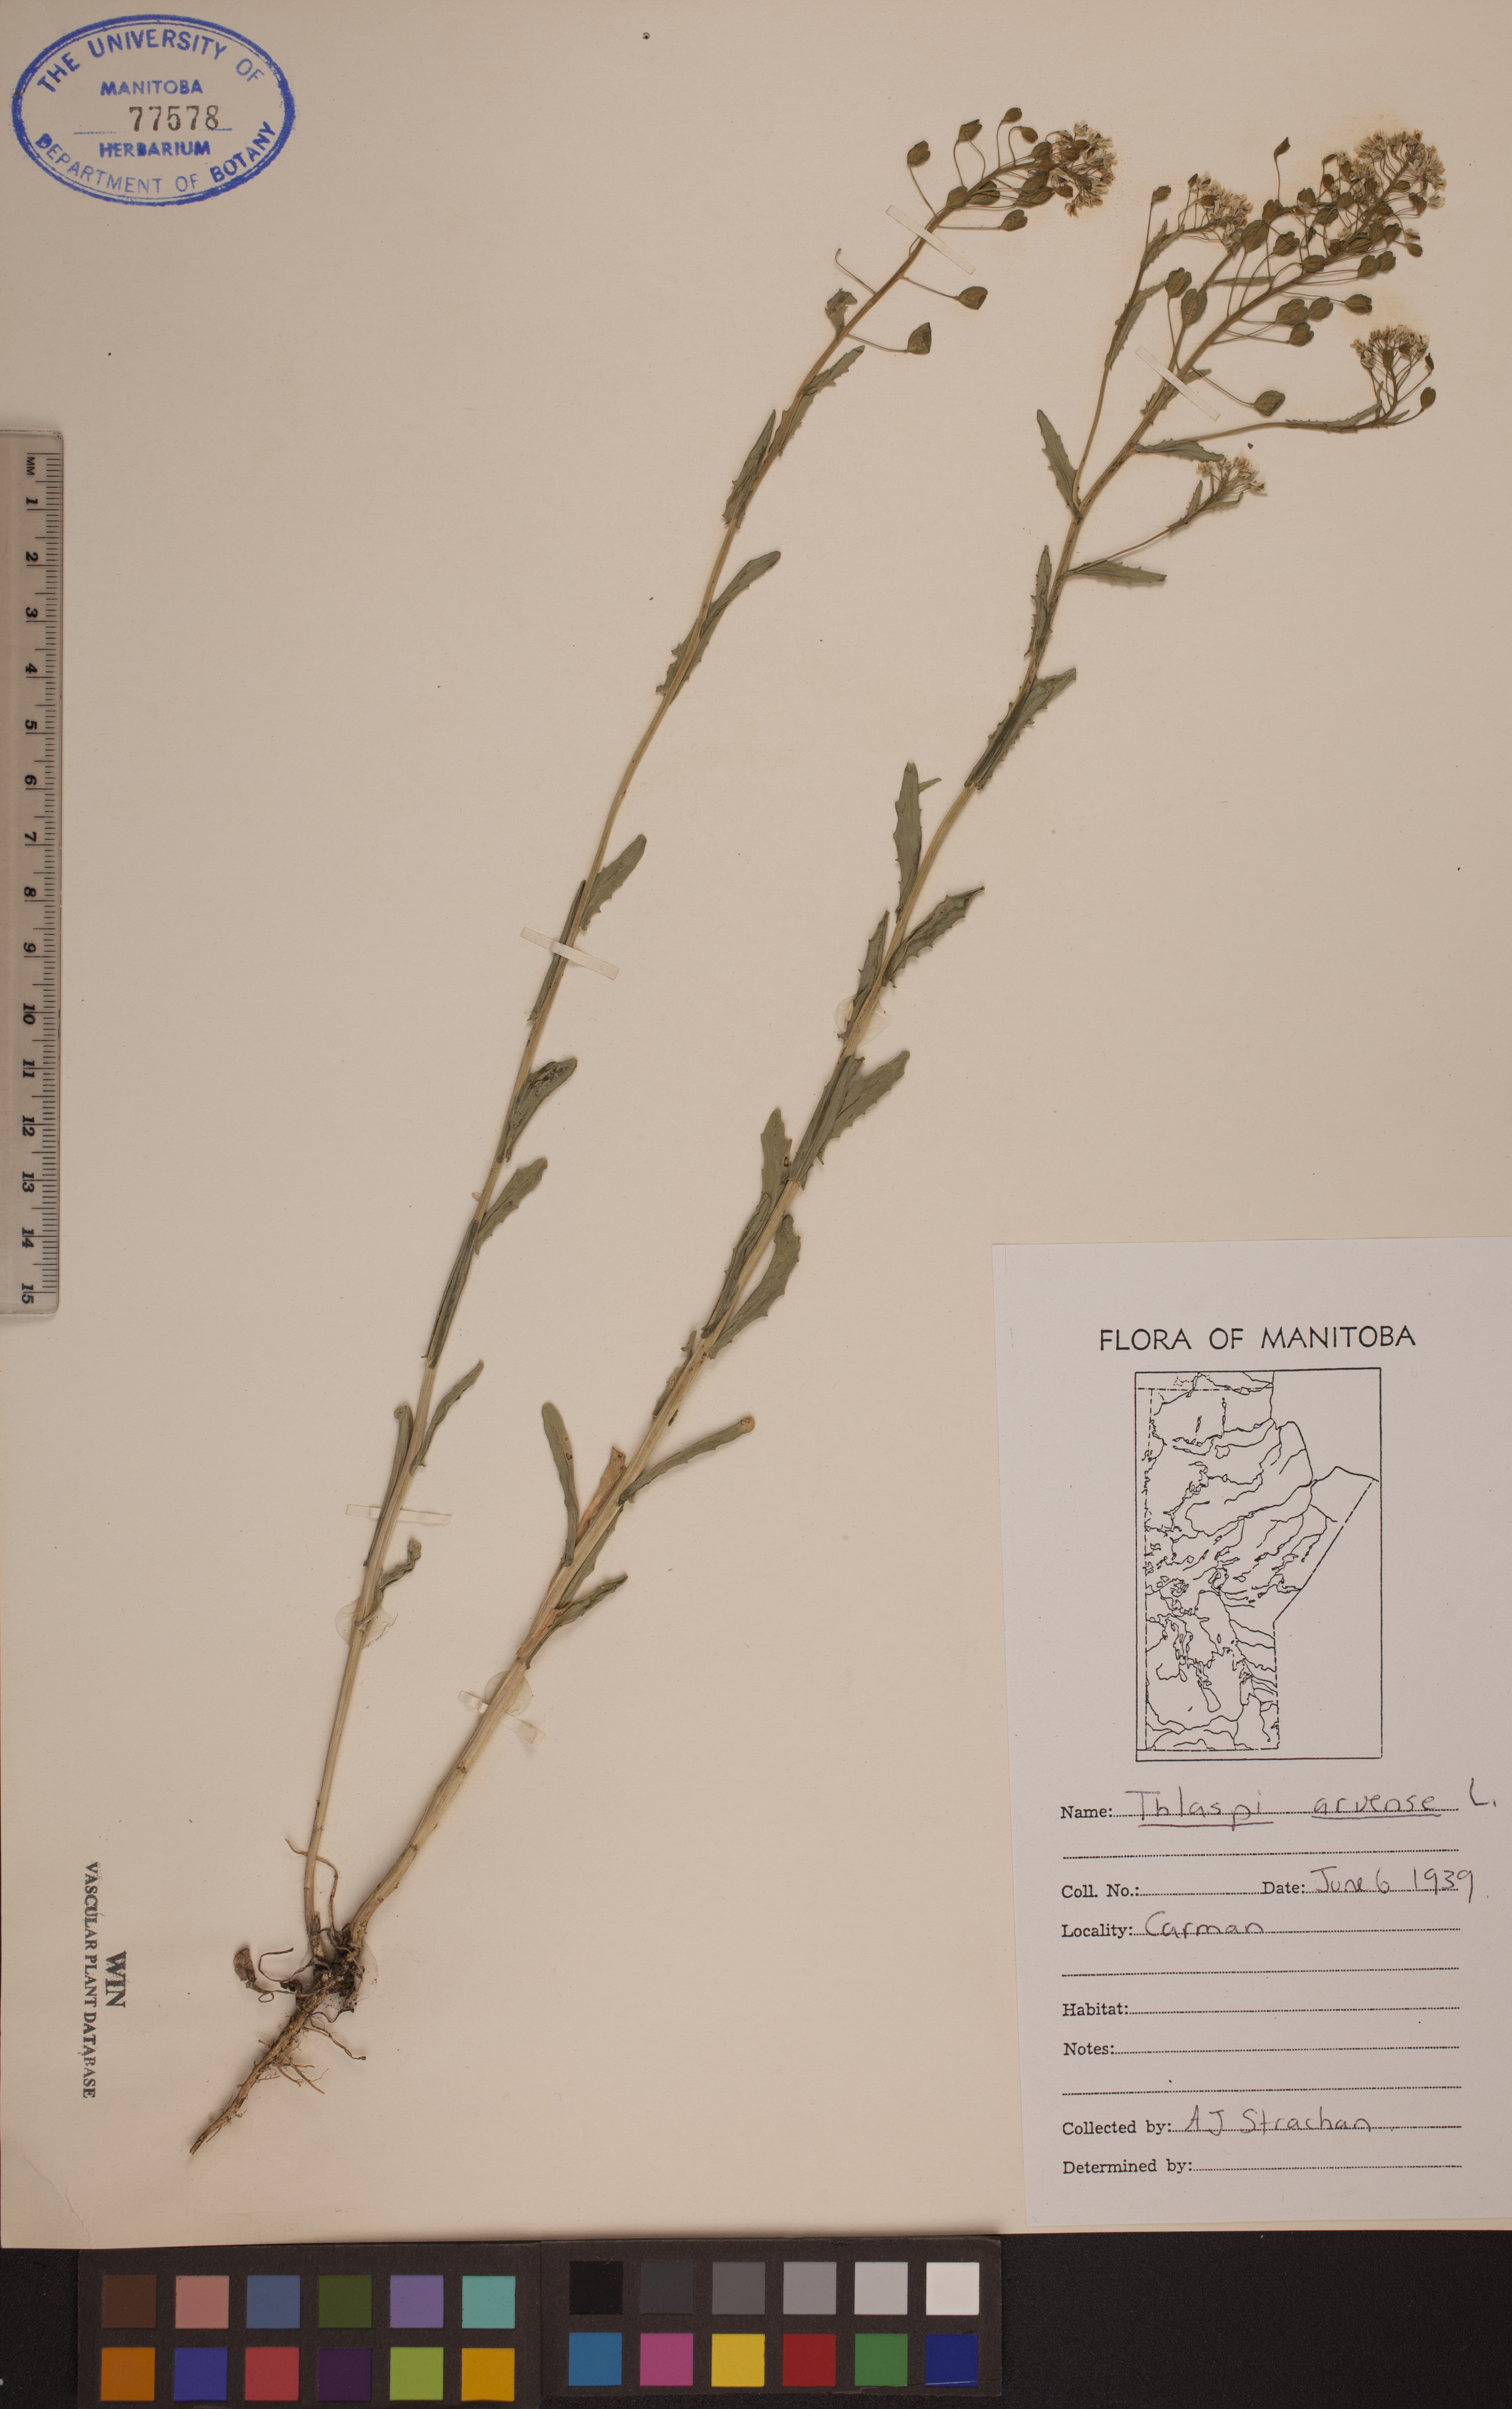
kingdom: Plantae
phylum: Tracheophyta
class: Magnoliopsida
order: Brassicales
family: Brassicaceae
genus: Thlaspi
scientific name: Thlaspi arvense
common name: Field pennycress
